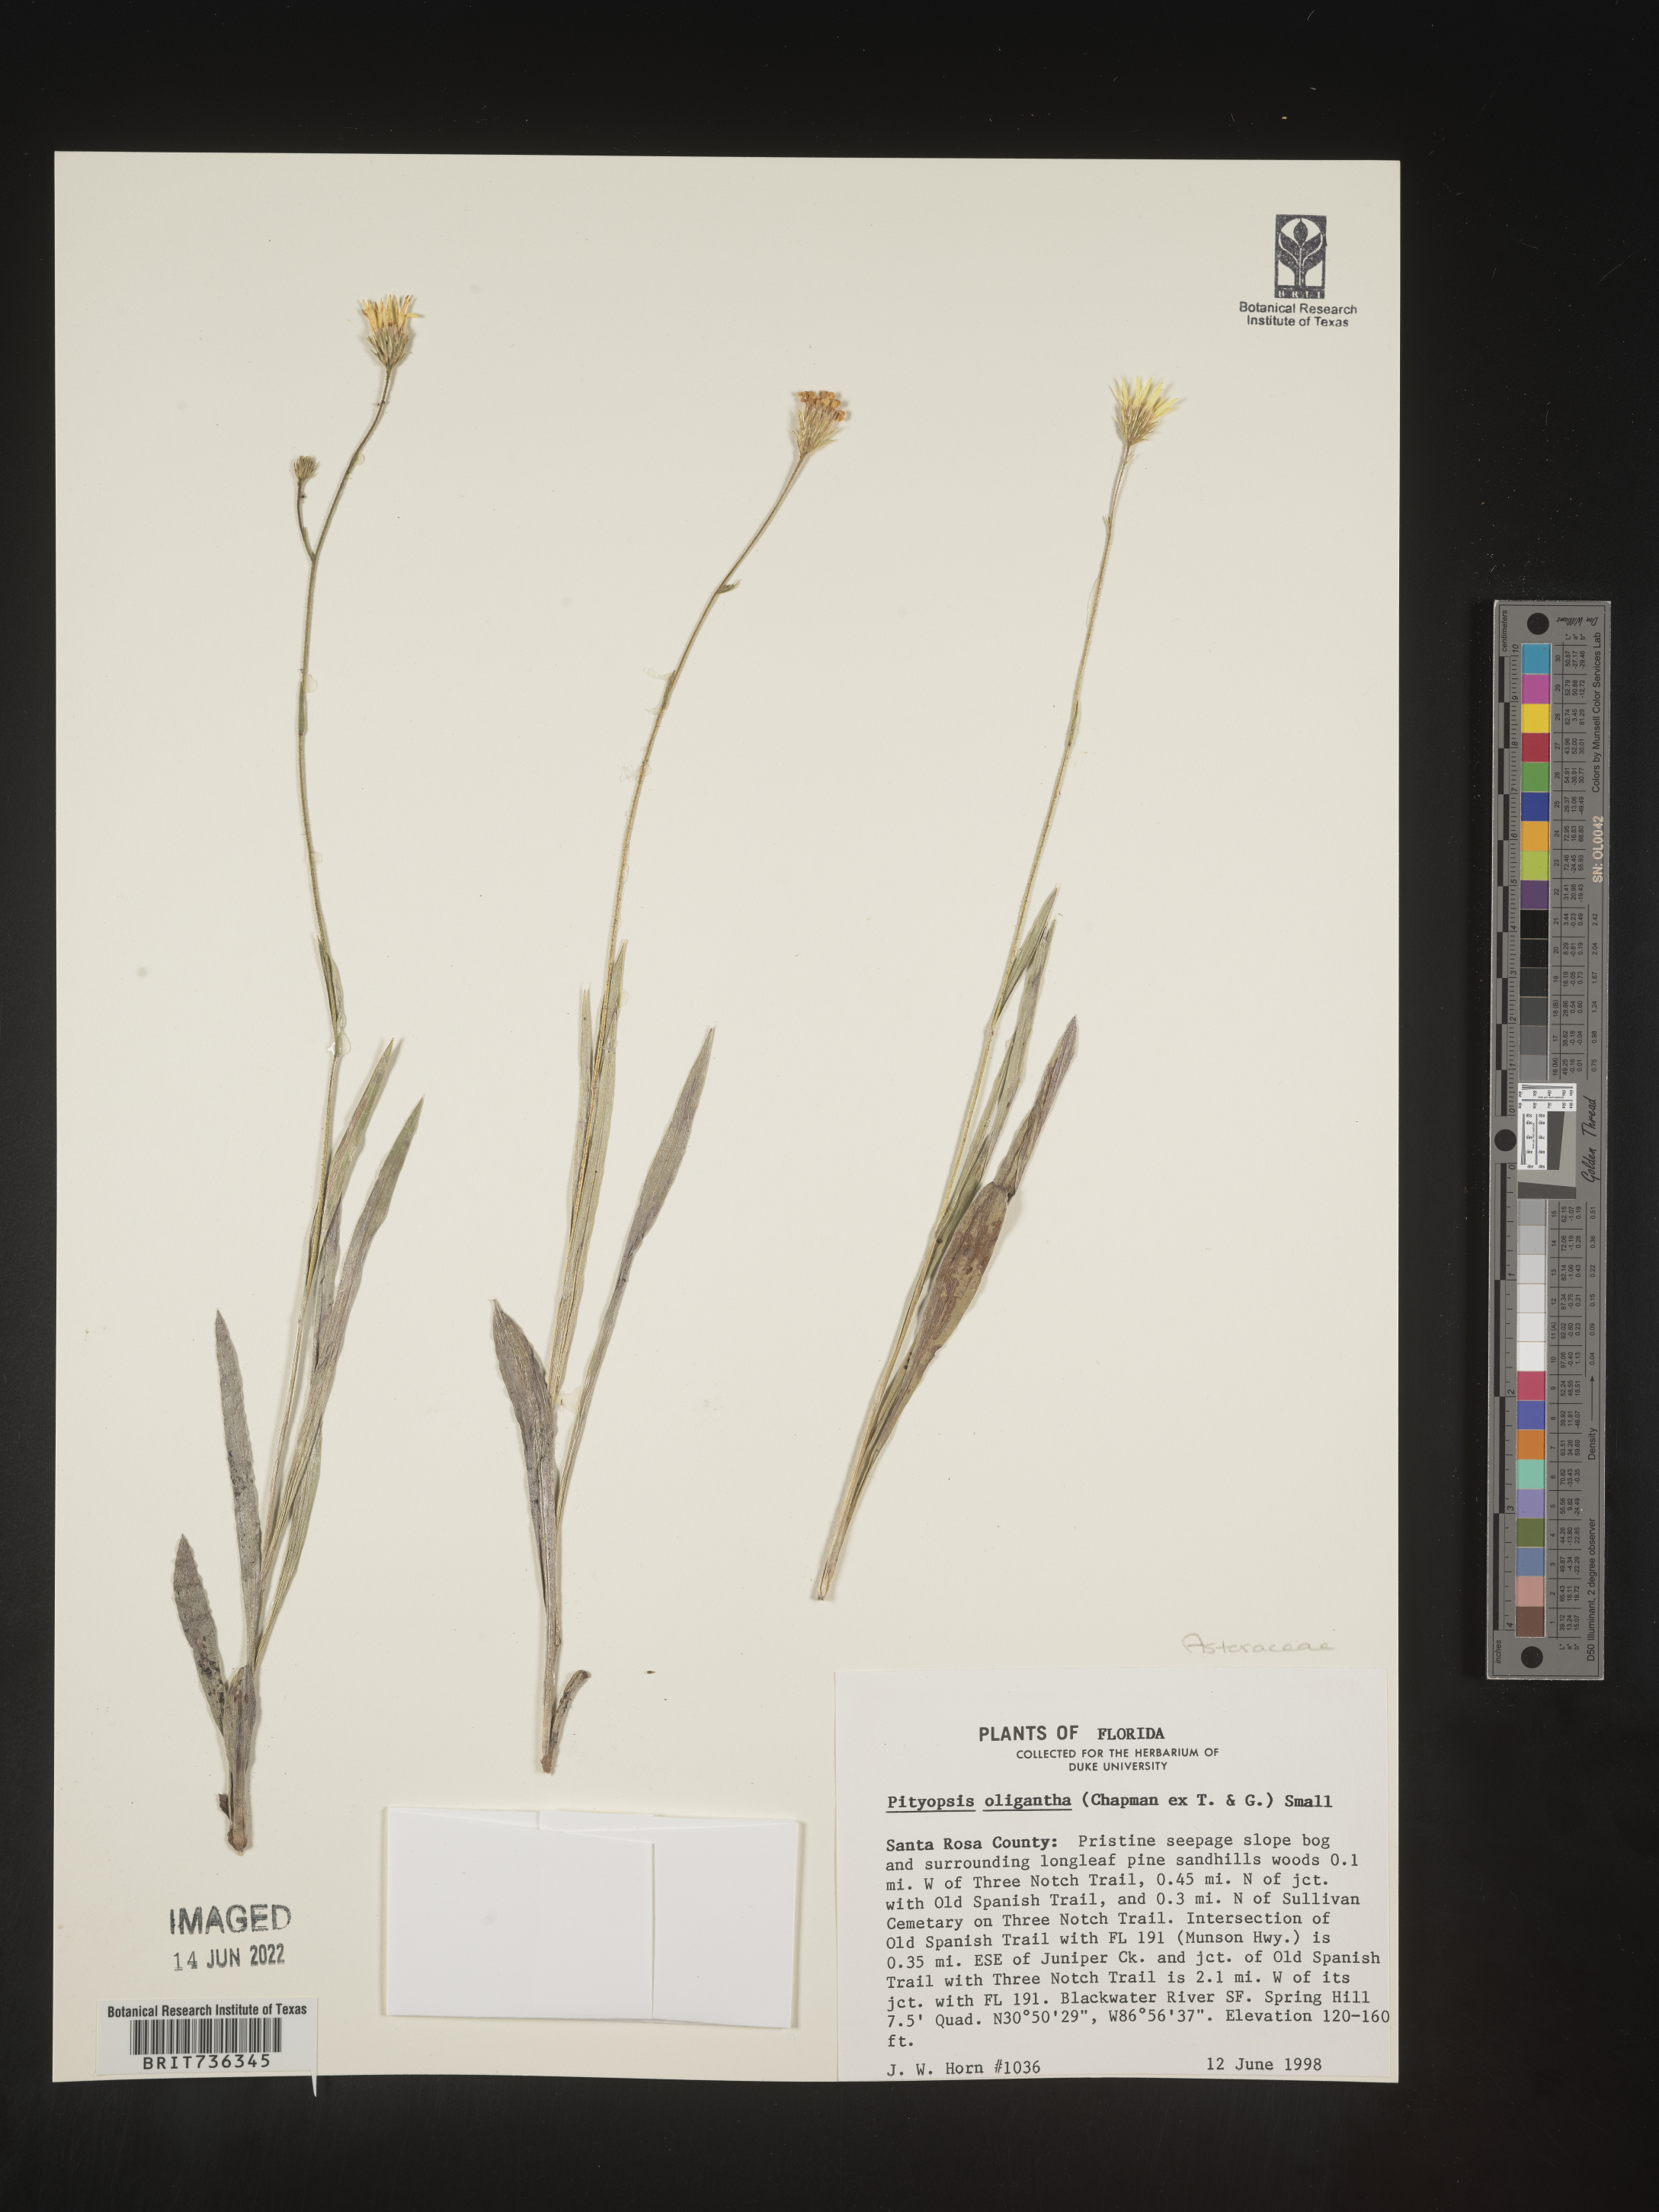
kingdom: Plantae
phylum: Tracheophyta
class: Magnoliopsida
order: Asterales
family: Asteraceae
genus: Pityopsis
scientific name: Pityopsis oligantha
